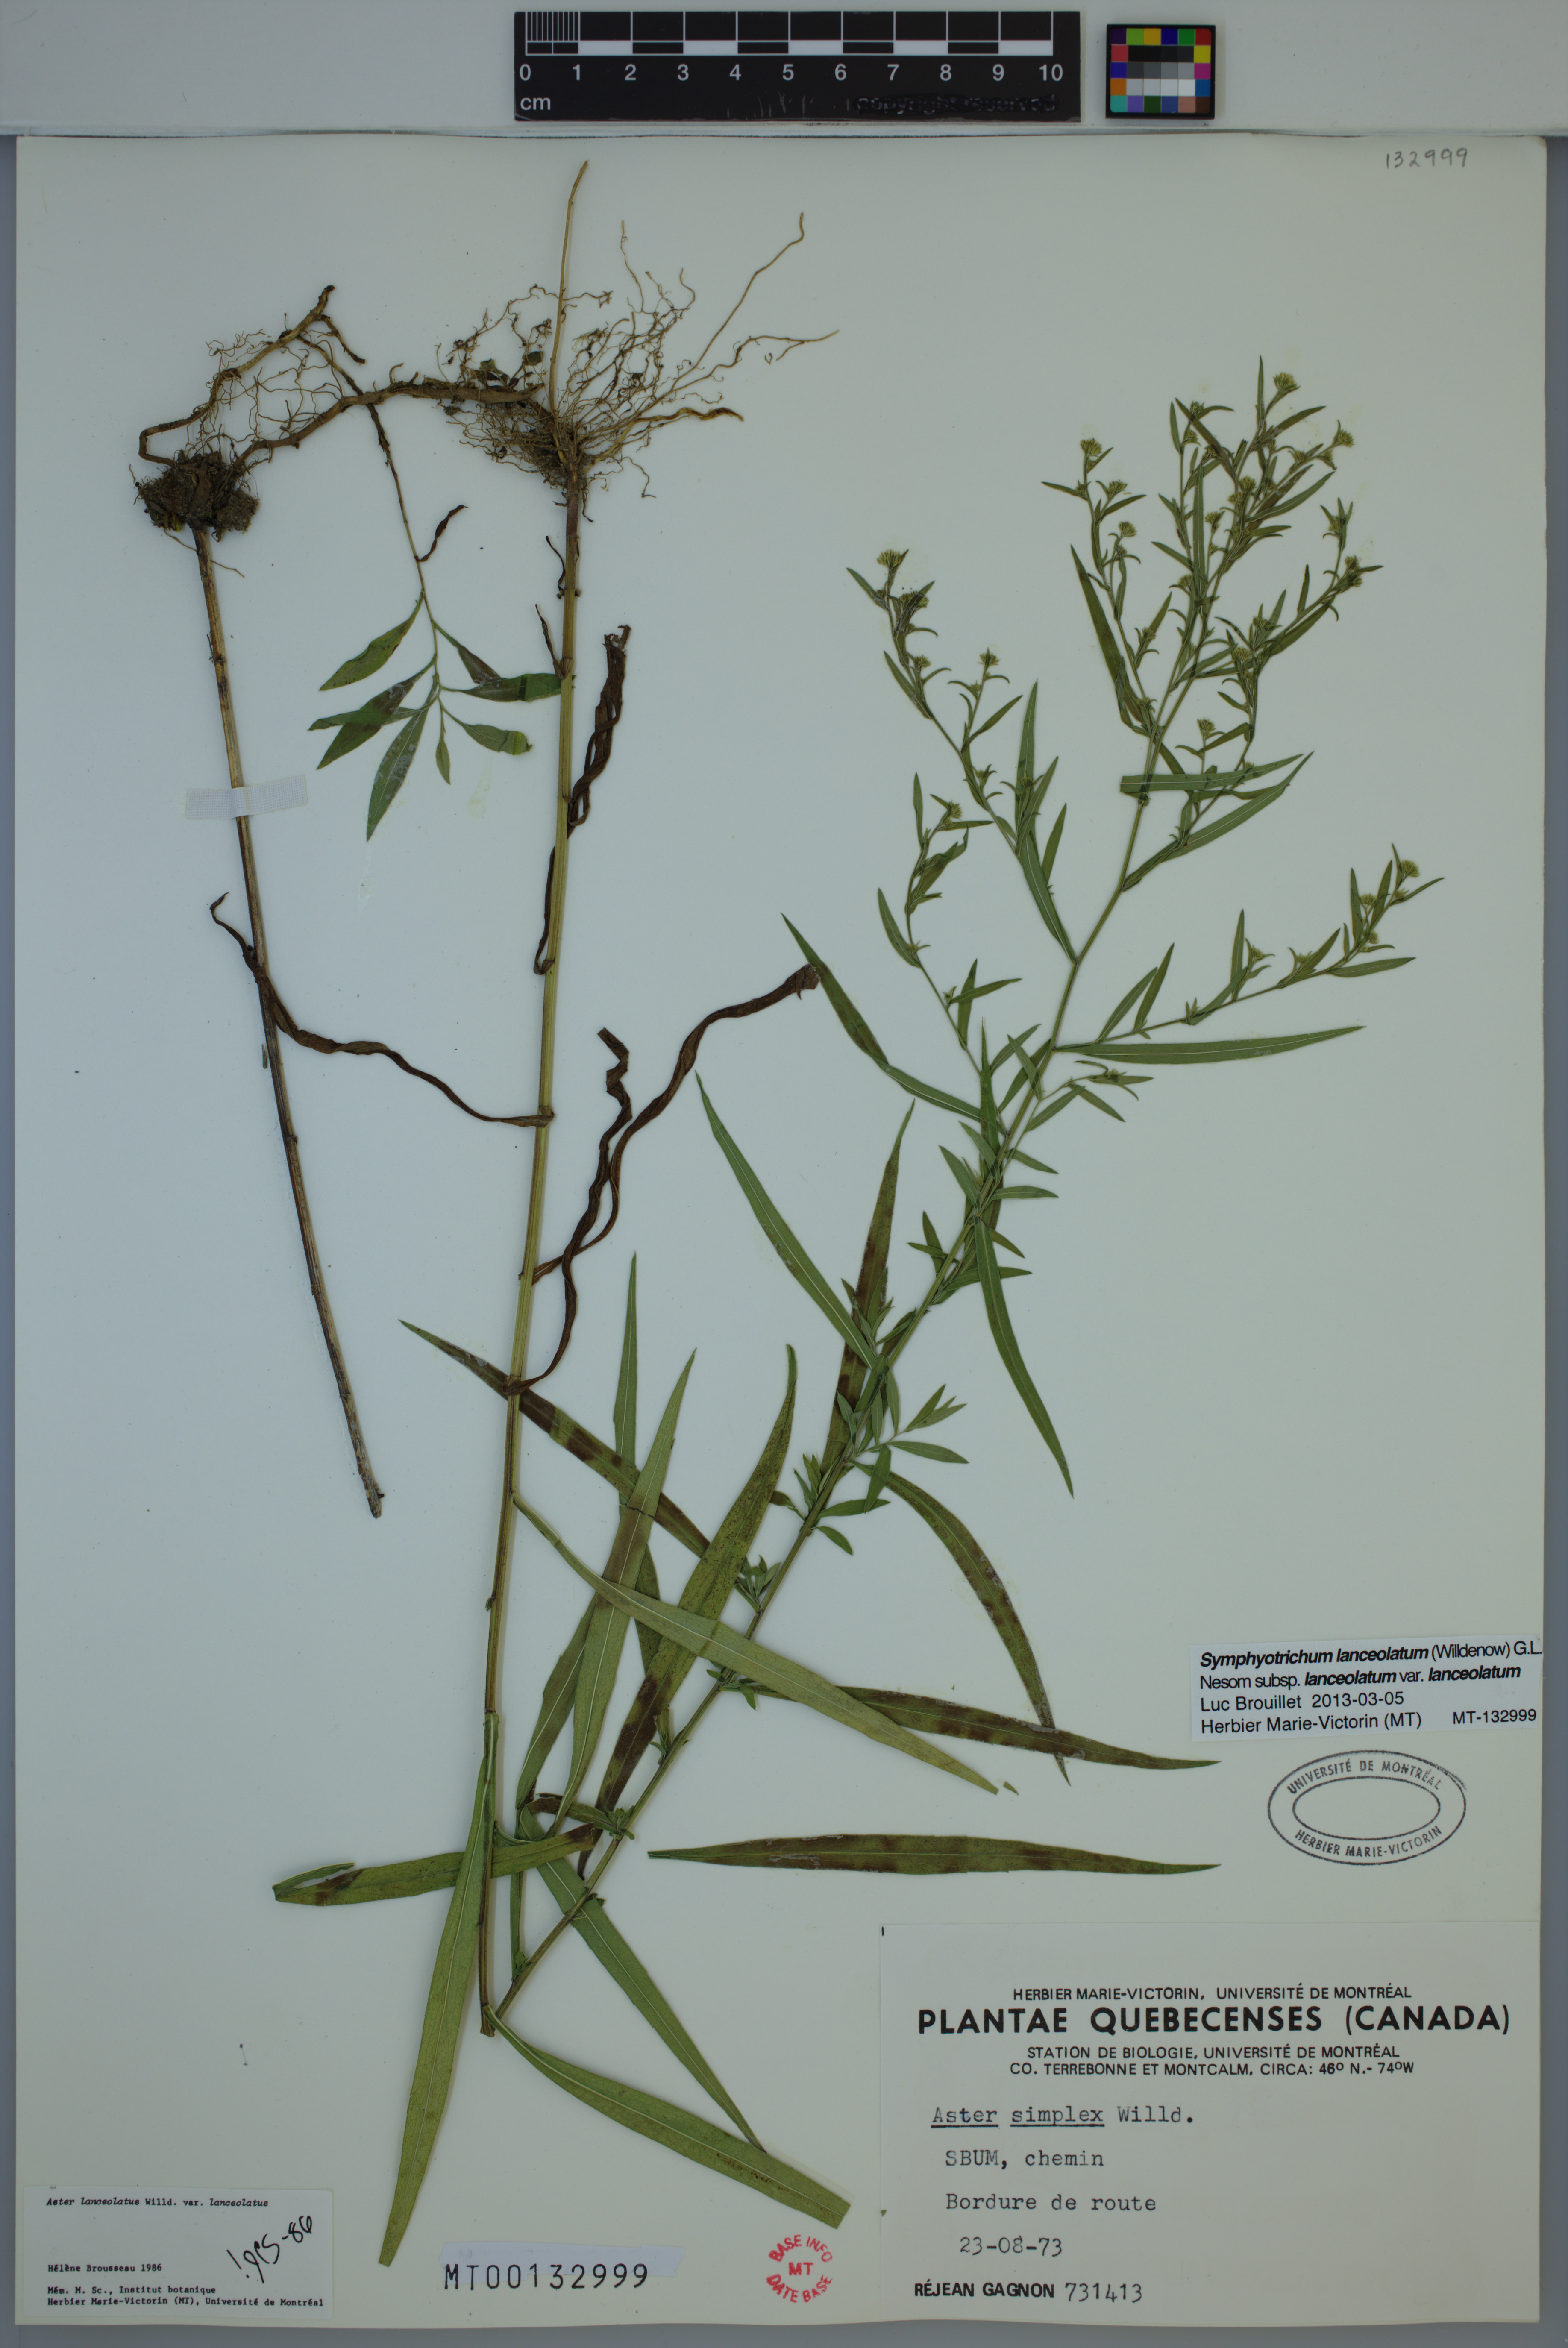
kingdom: Plantae
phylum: Tracheophyta
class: Magnoliopsida
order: Asterales
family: Asteraceae
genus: Symphyotrichum
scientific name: Symphyotrichum lanceolatum
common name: Panicled aster
